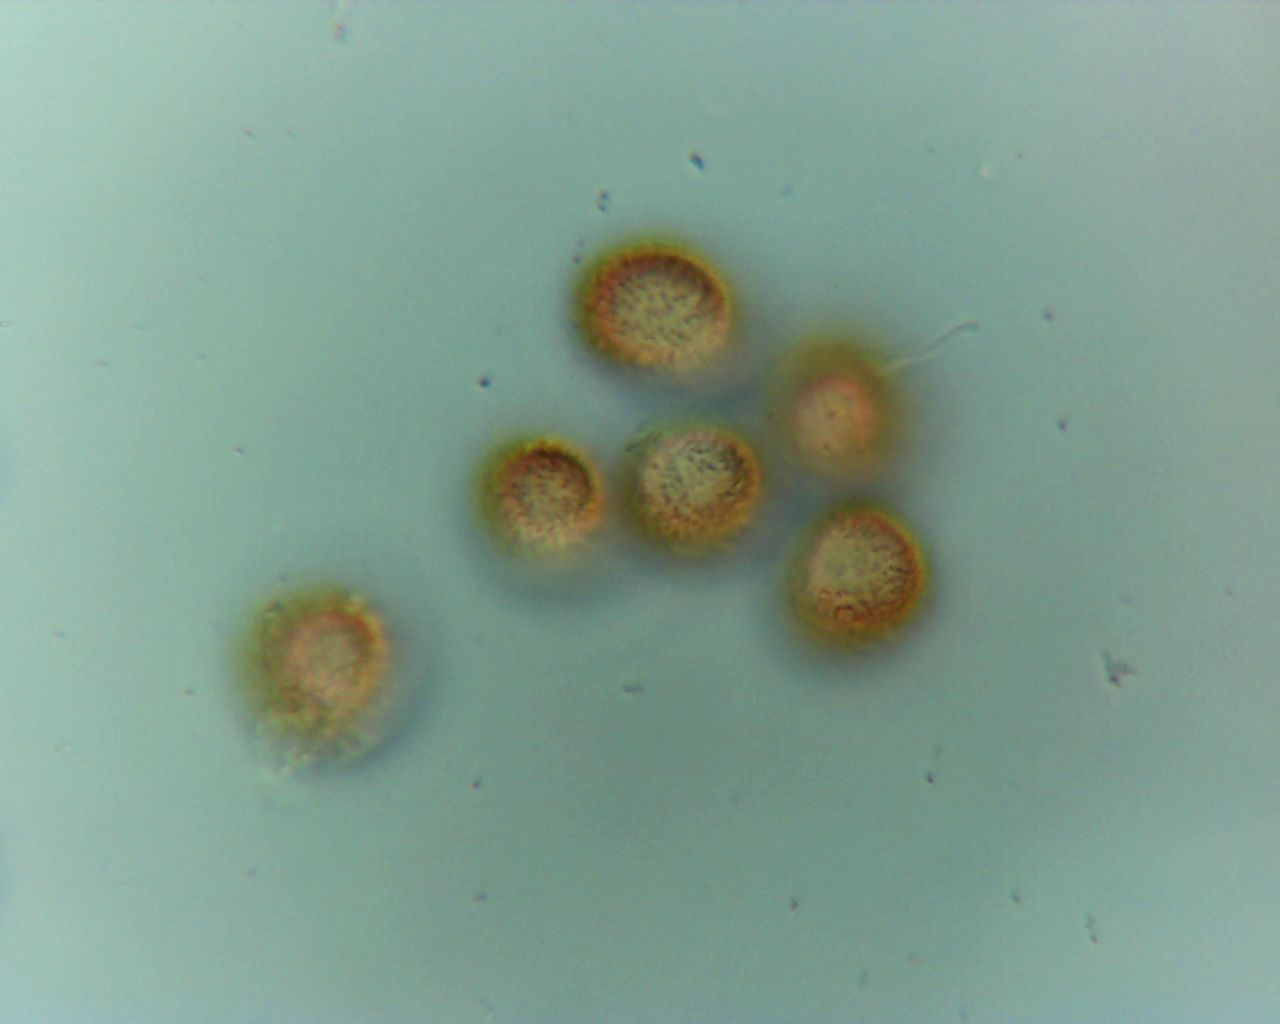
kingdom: Protozoa
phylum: Mycetozoa
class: Myxomycetes
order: Trichiales
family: Trichiaceae
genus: Metatrichia
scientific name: Metatrichia vesparia
